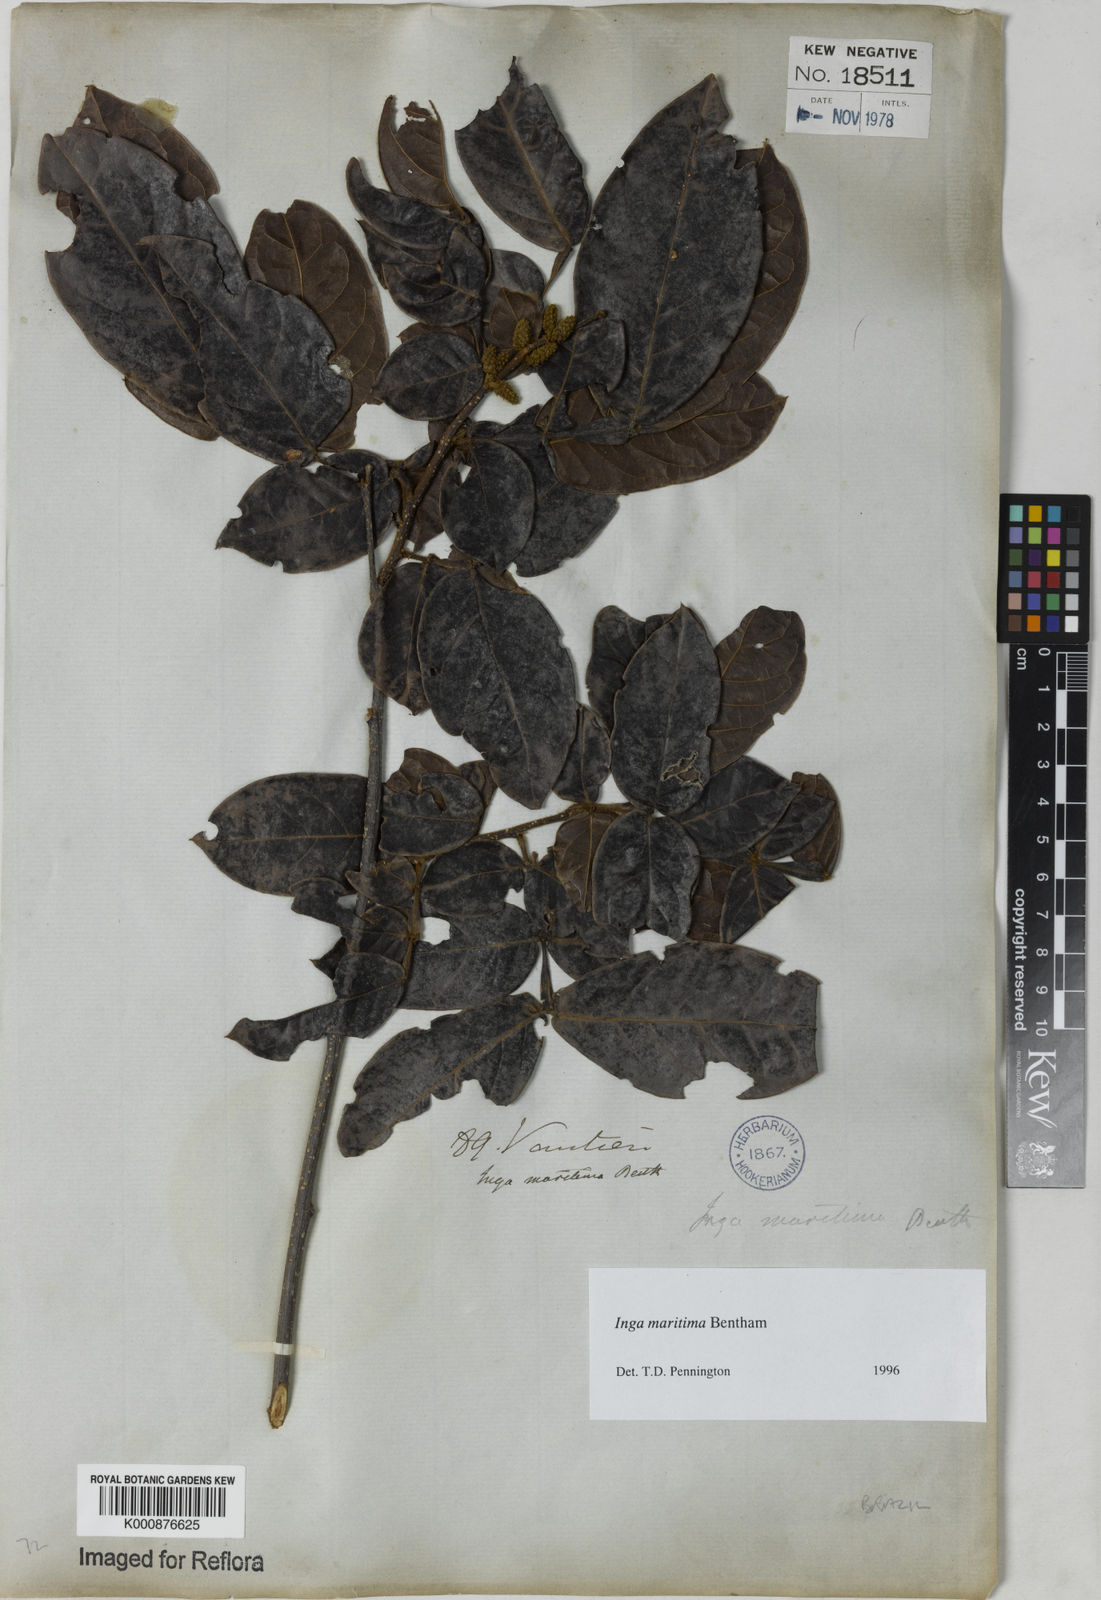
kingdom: Plantae
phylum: Tracheophyta
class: Magnoliopsida
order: Fabales
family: Fabaceae
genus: Inga
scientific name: Inga maritima
